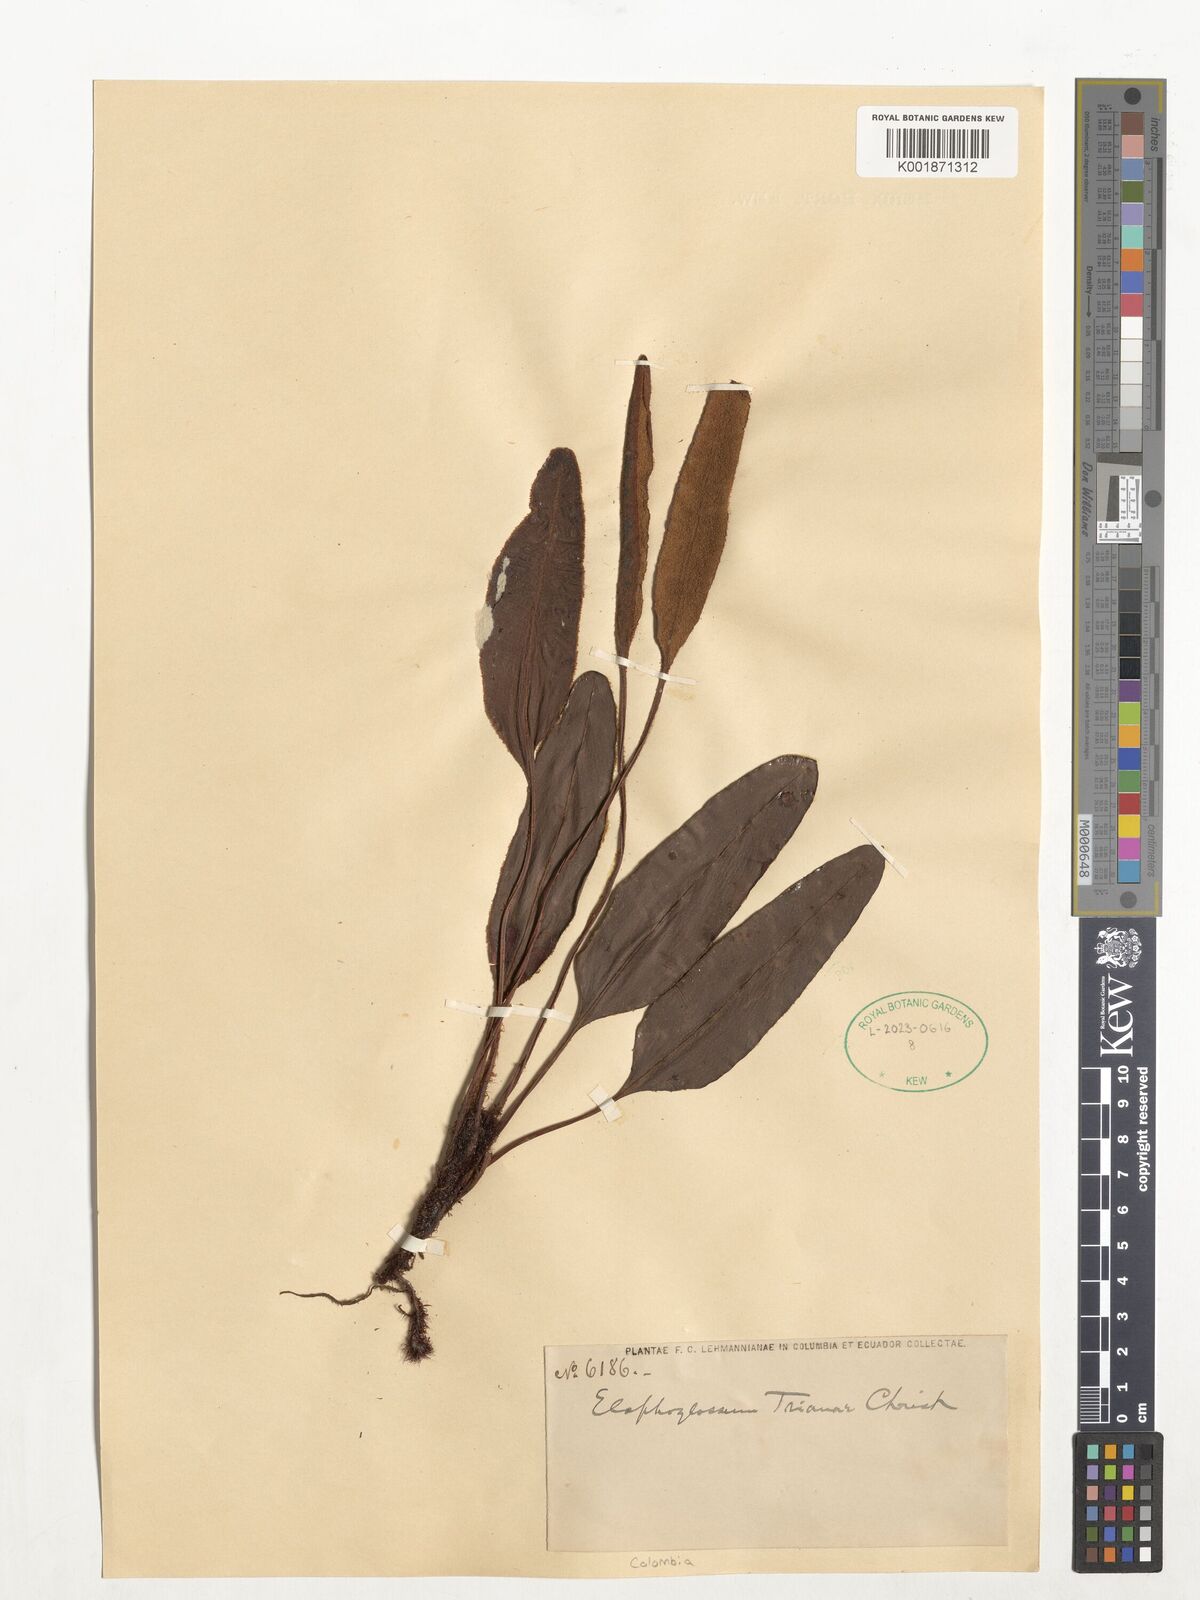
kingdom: Plantae
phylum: Tracheophyta
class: Polypodiopsida
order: Polypodiales
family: Dryopteridaceae
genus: Elaphoglossum
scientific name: Elaphoglossum trianae
